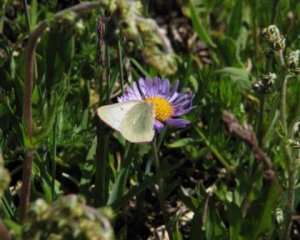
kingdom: Animalia
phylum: Arthropoda
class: Insecta
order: Lepidoptera
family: Pieridae
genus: Colias
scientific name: Colias nastes
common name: Labrador Sulphur
